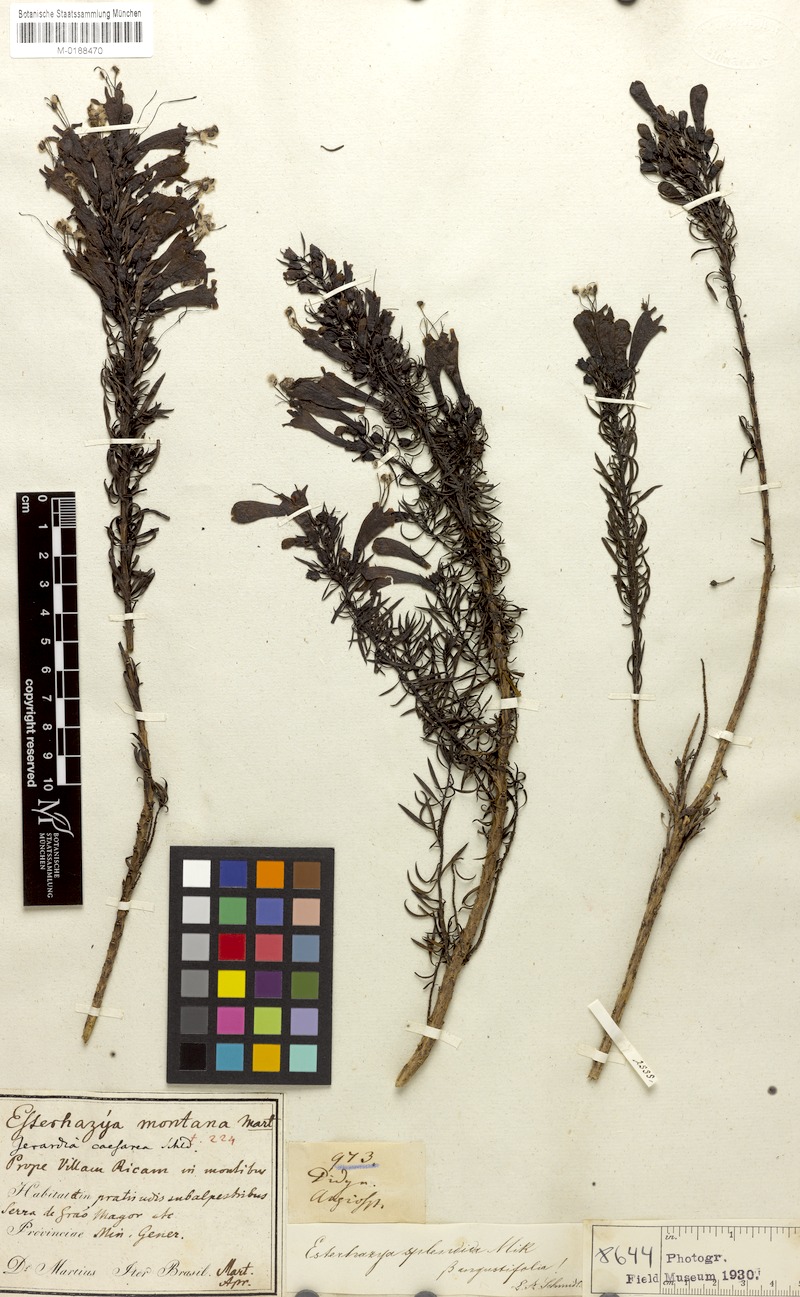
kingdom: Plantae
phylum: Tracheophyta
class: Magnoliopsida
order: Lamiales
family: Orobanchaceae
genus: Esterhazya
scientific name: Esterhazya splendida
